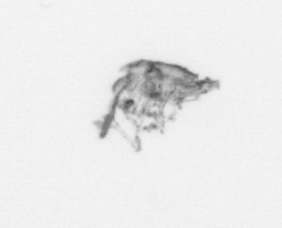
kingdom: Animalia
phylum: Arthropoda
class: Copepoda
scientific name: Copepoda
